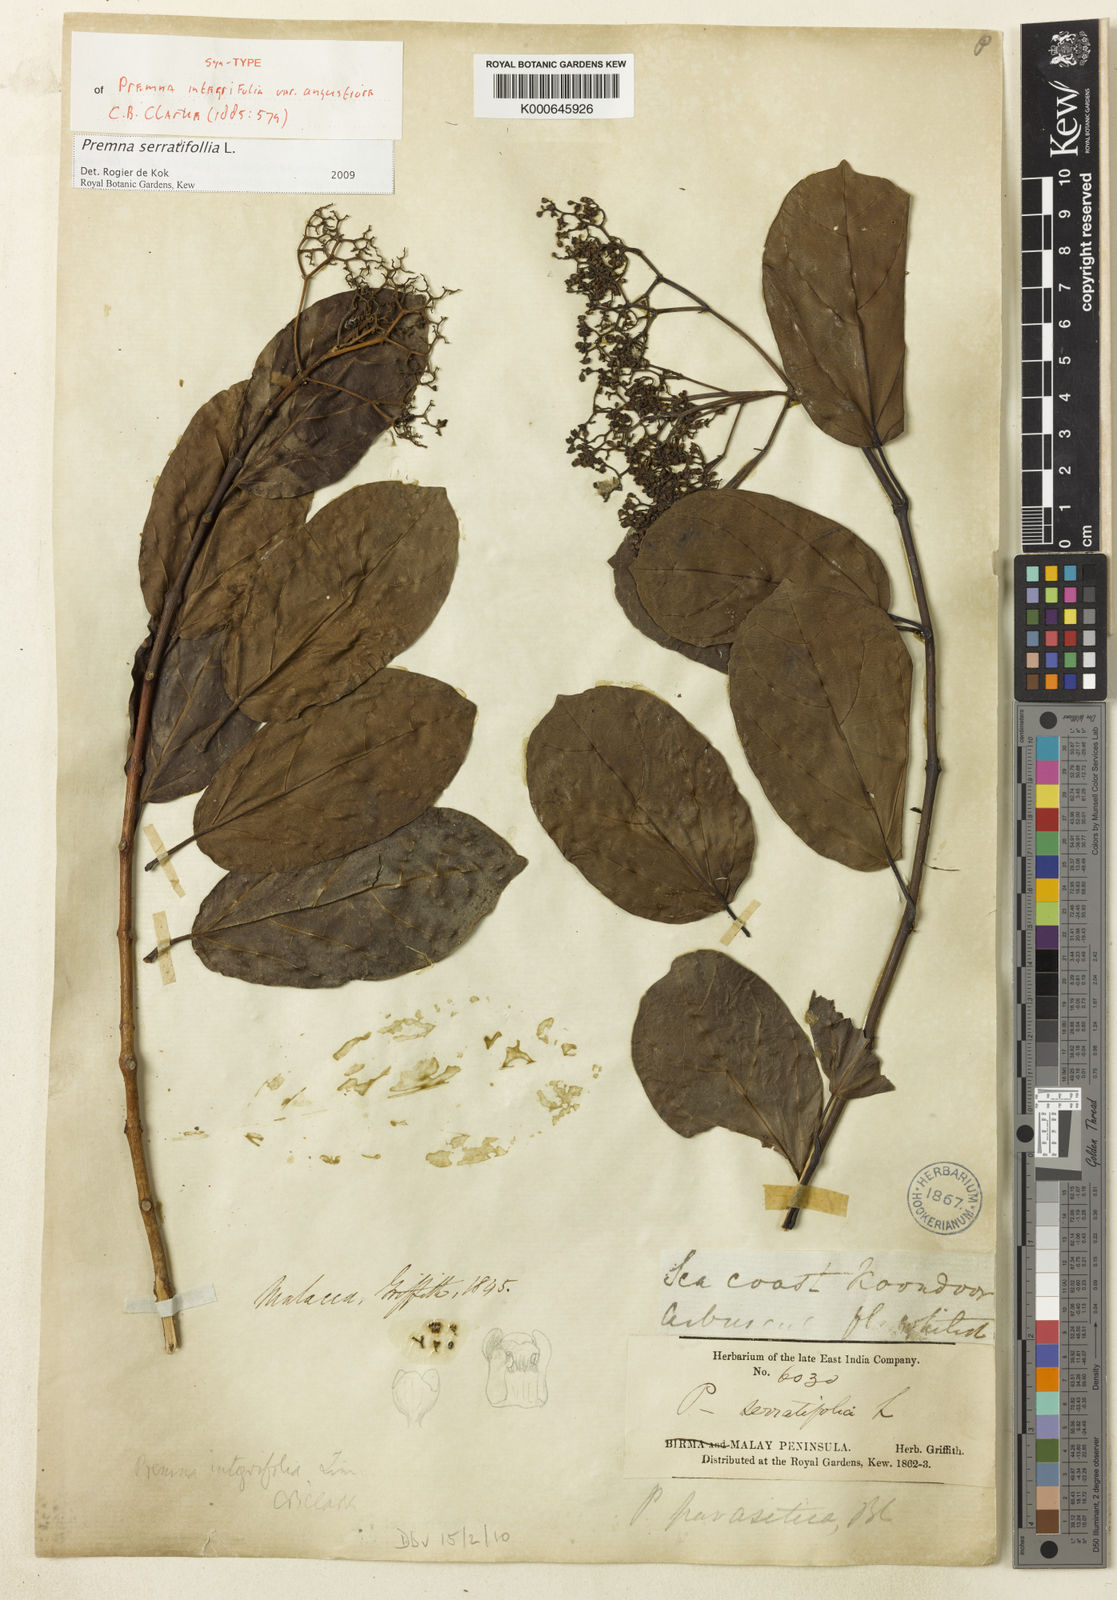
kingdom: Plantae
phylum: Tracheophyta
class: Magnoliopsida
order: Lamiales
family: Lamiaceae
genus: Premna
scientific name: Premna serratifolia
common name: Bastard guelder
